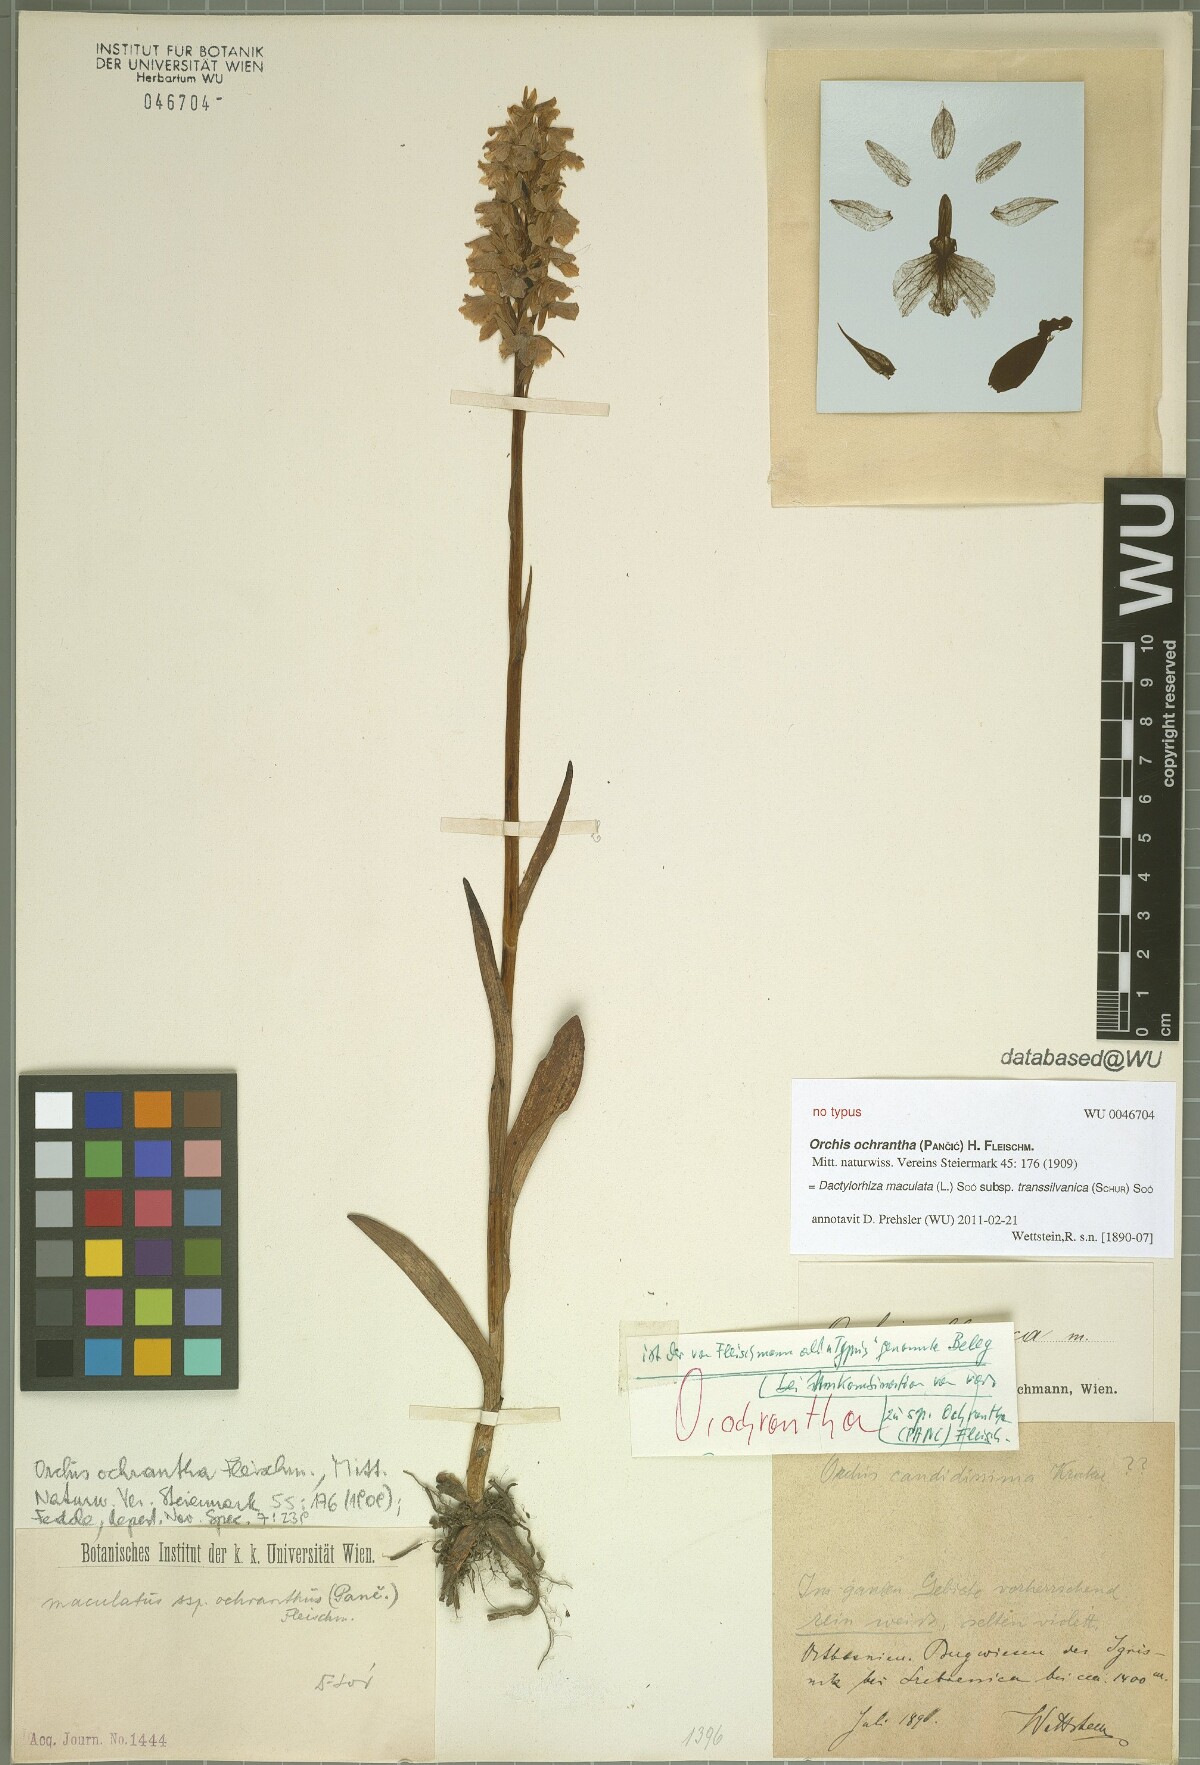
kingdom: Plantae
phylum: Tracheophyta
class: Liliopsida
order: Asparagales
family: Orchidaceae
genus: Dactylorhiza
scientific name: Dactylorhiza maculata
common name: Heath spotted-orchid
